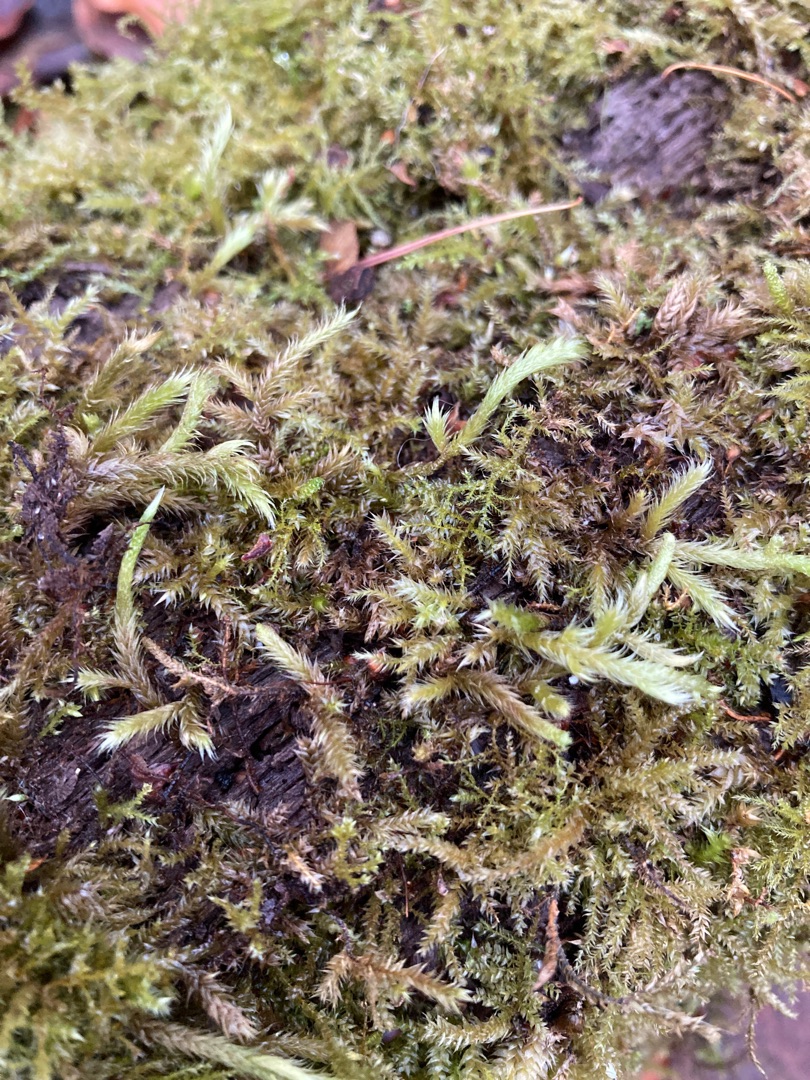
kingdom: Plantae
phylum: Bryophyta
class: Bryopsida
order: Hypnales
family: Brachytheciaceae
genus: Brachythecium
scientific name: Brachythecium salebrosum
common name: Skov-kortkapsel
